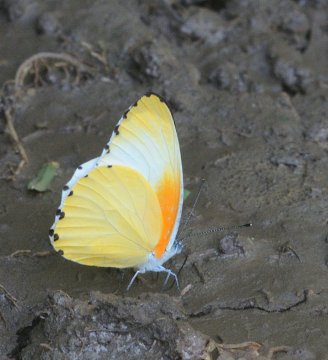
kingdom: Animalia
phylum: Arthropoda
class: Insecta
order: Lepidoptera
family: Pieridae
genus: Mylothris
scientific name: Mylothris agathina
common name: Eastern Dotted Border
